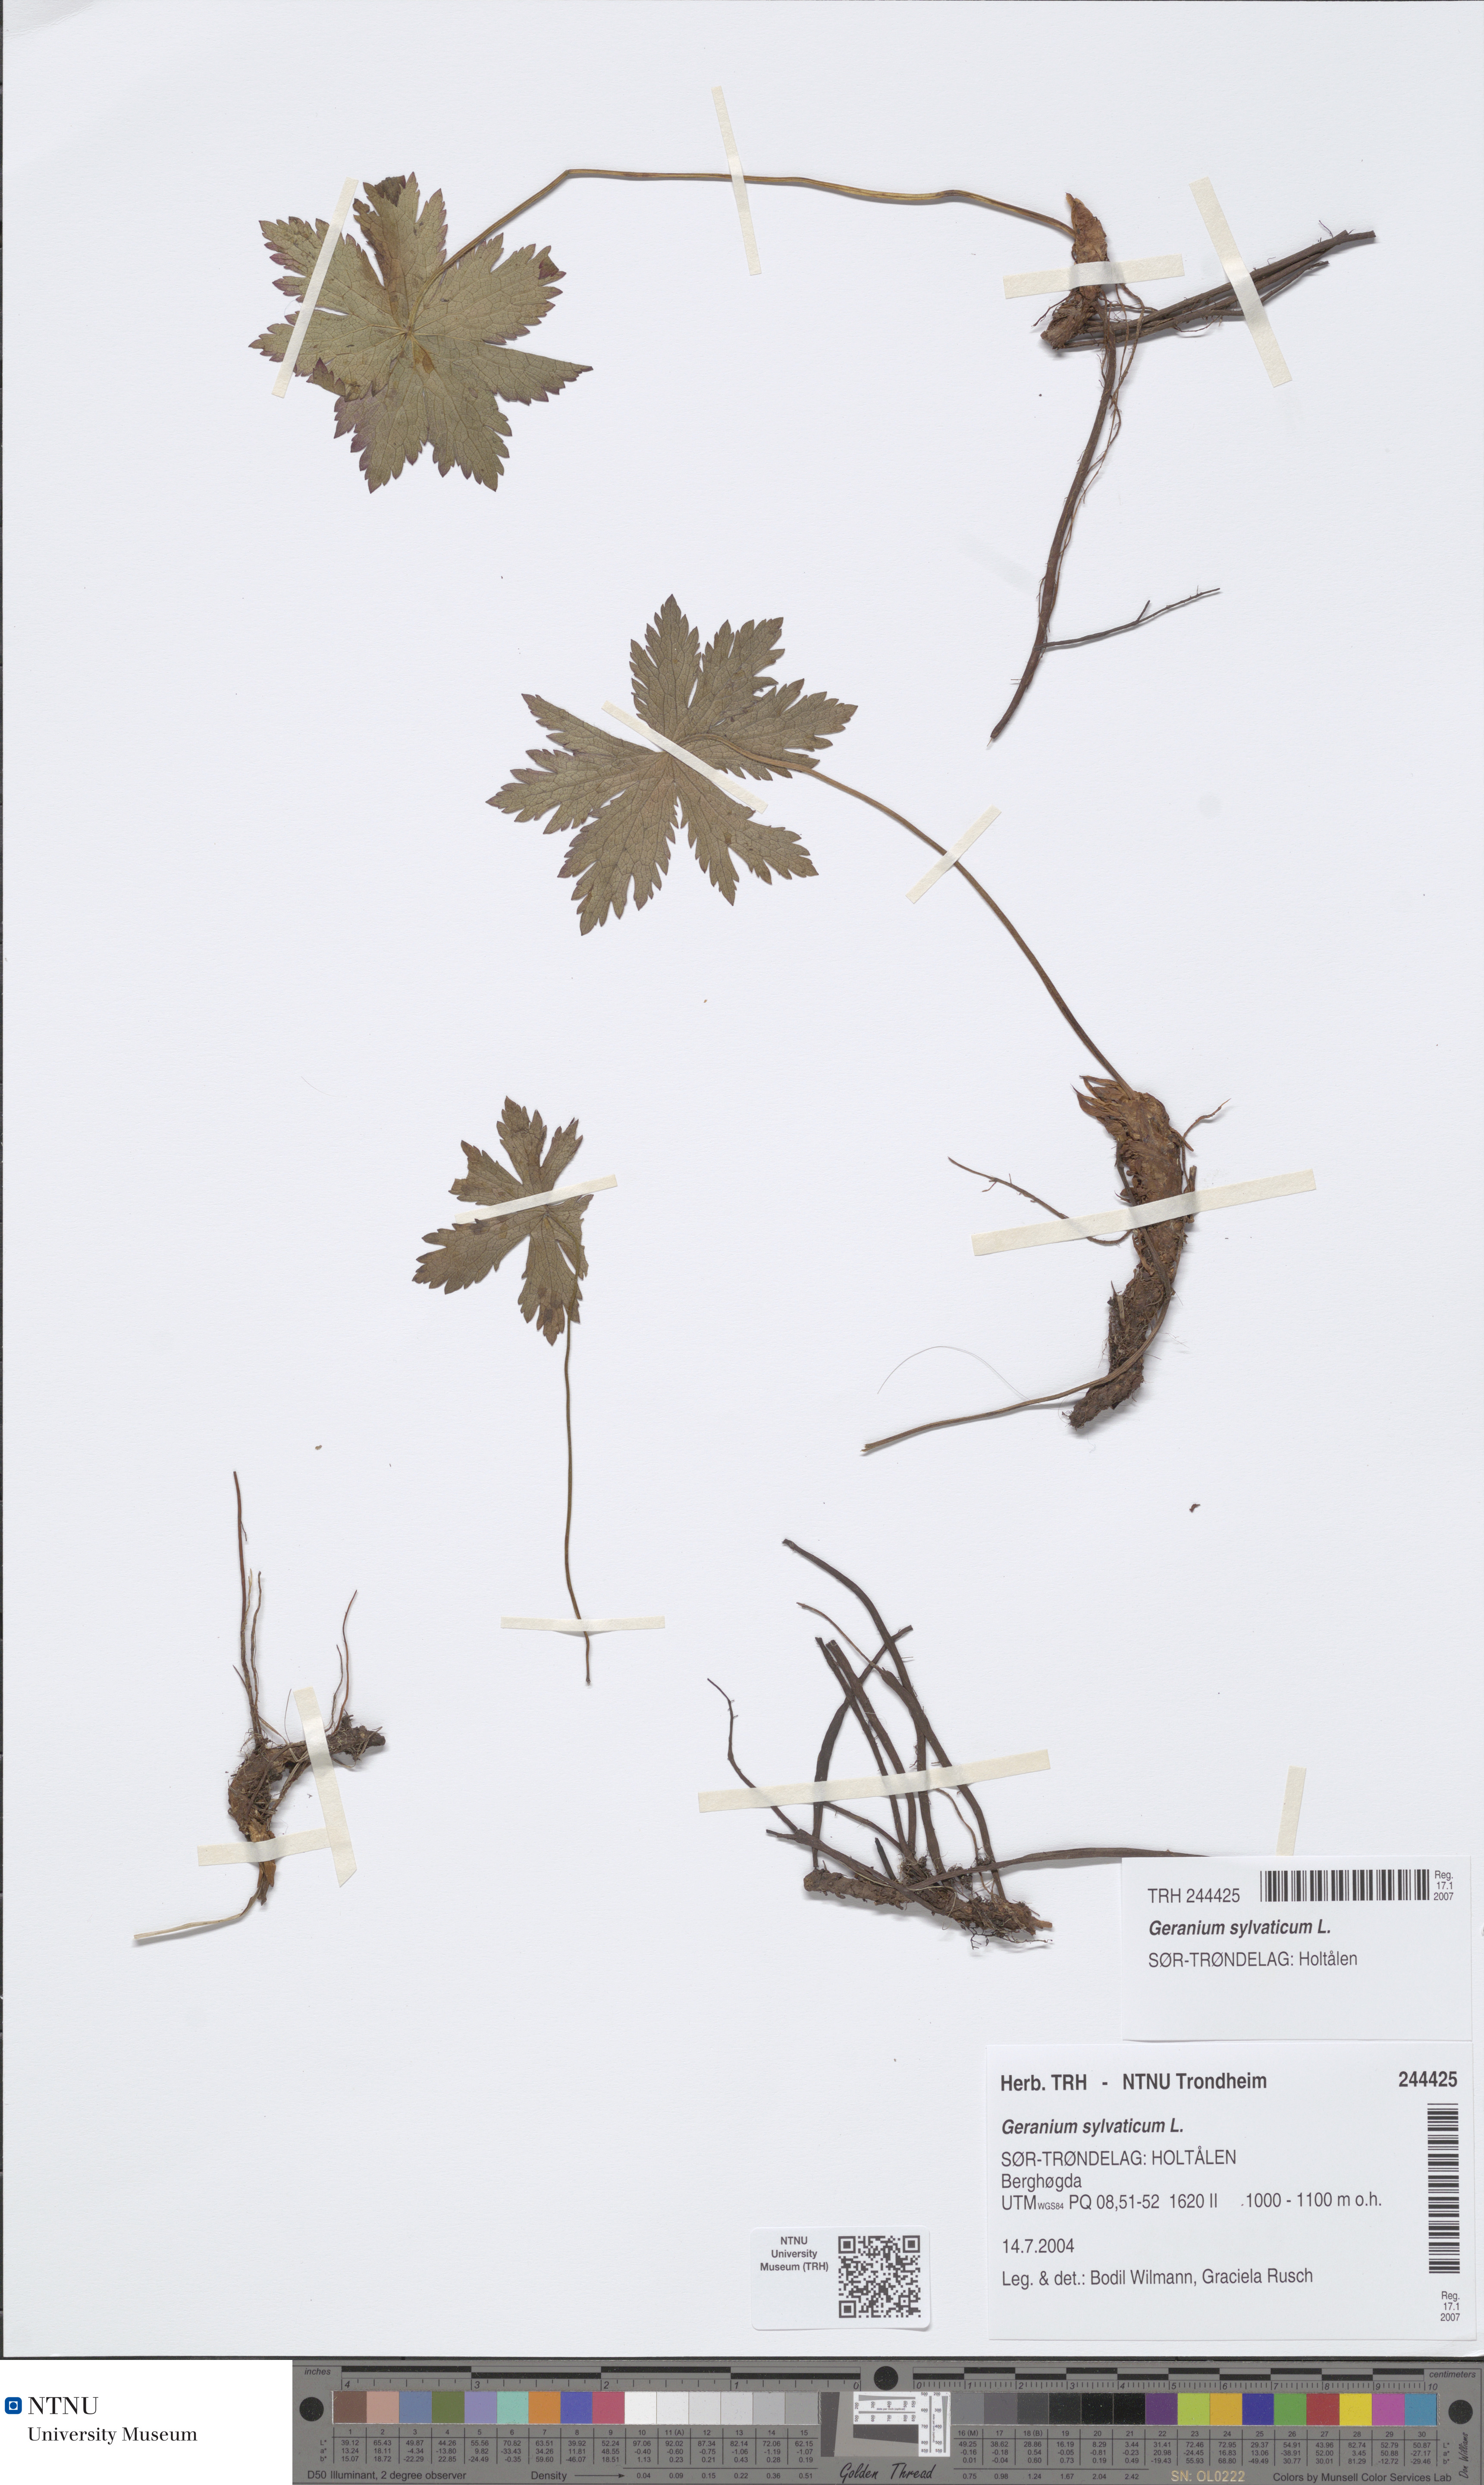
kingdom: Plantae
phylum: Tracheophyta
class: Magnoliopsida
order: Geraniales
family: Geraniaceae
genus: Geranium
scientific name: Geranium sylvaticum
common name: Wood crane's-bill
